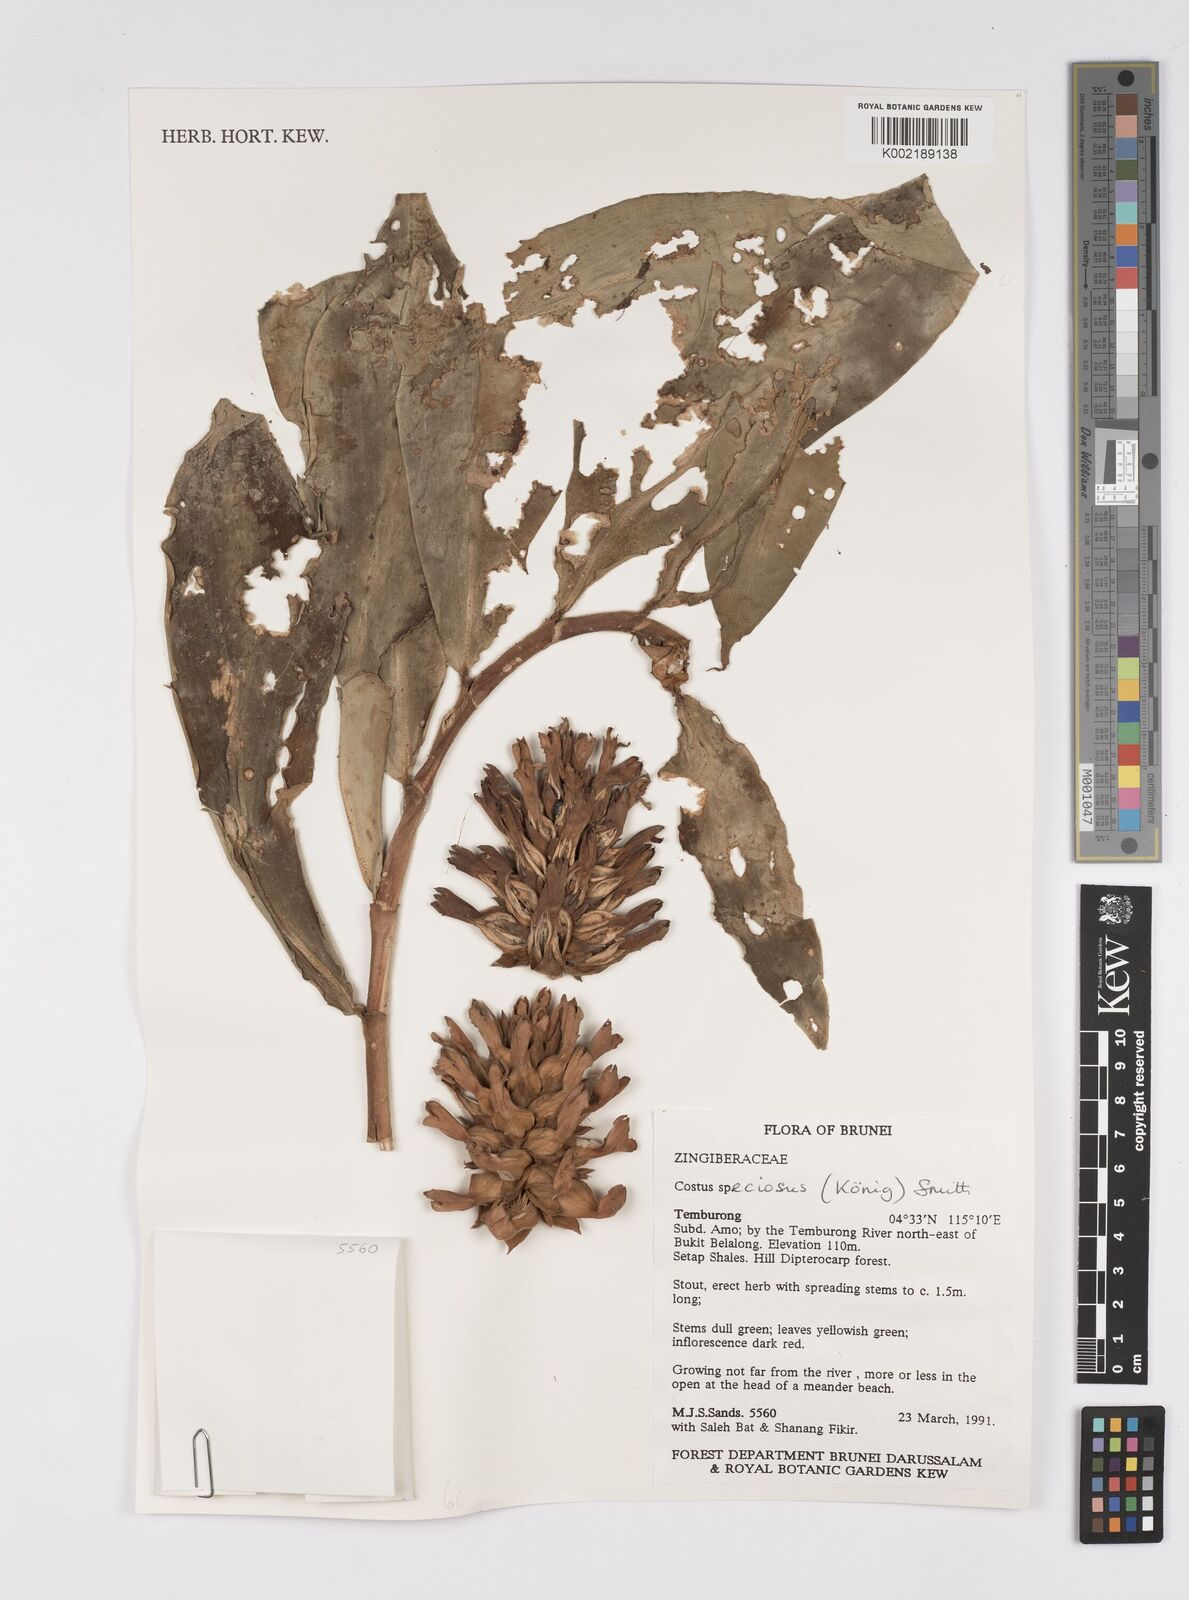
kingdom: Plantae
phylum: Tracheophyta
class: Liliopsida
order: Zingiberales
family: Costaceae
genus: Hellenia
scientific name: Hellenia speciosa
